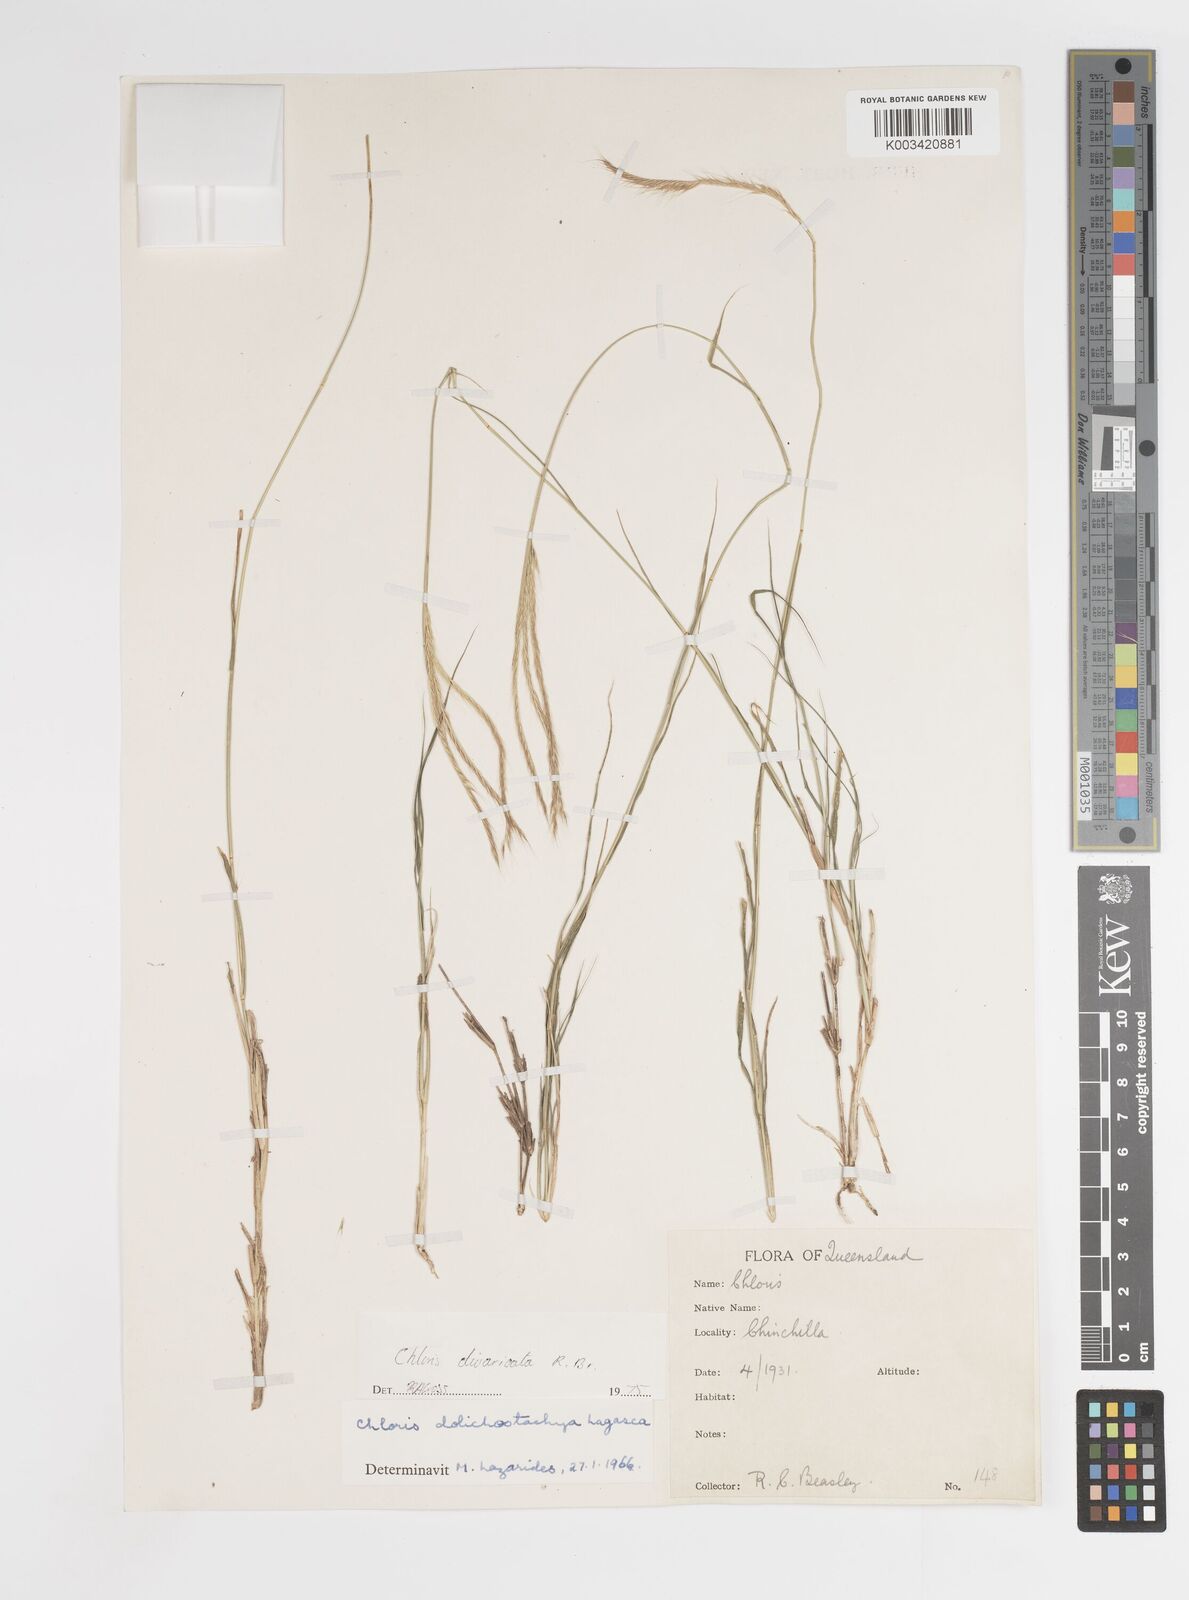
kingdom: Plantae
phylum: Tracheophyta
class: Liliopsida
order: Poales
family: Poaceae
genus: Enteropogon
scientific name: Enteropogon dolichostachyus
